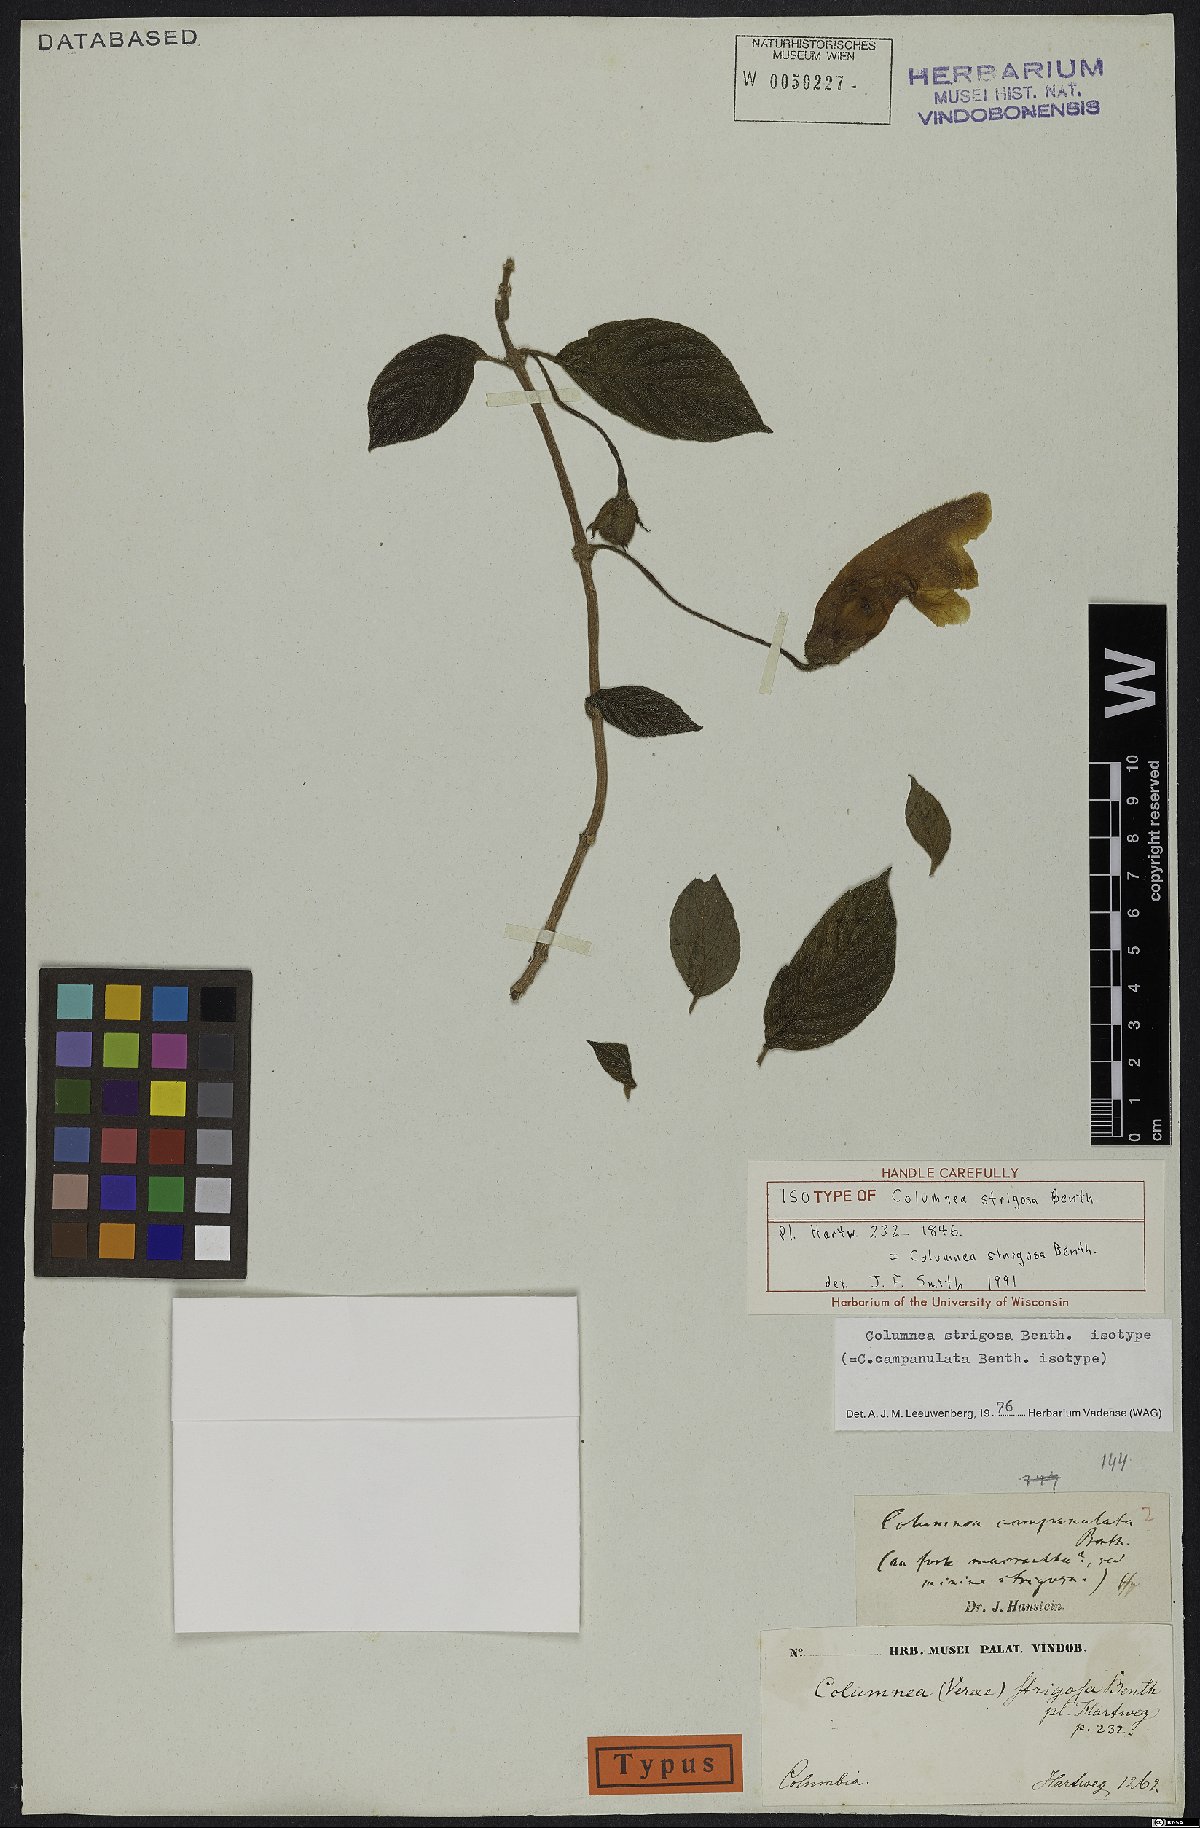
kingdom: Plantae
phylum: Tracheophyta
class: Magnoliopsida
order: Lamiales
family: Gesneriaceae
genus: Columnea
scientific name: Columnea strigosa
